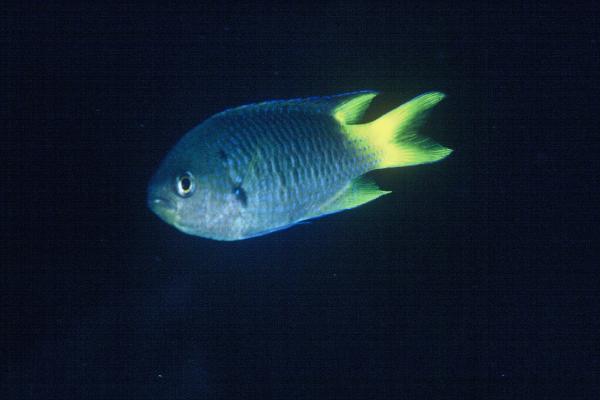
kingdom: Animalia
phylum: Chordata
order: Perciformes
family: Pomacentridae
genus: Neopomacentrus
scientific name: Neopomacentrus violascens
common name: Violet demoiselle
